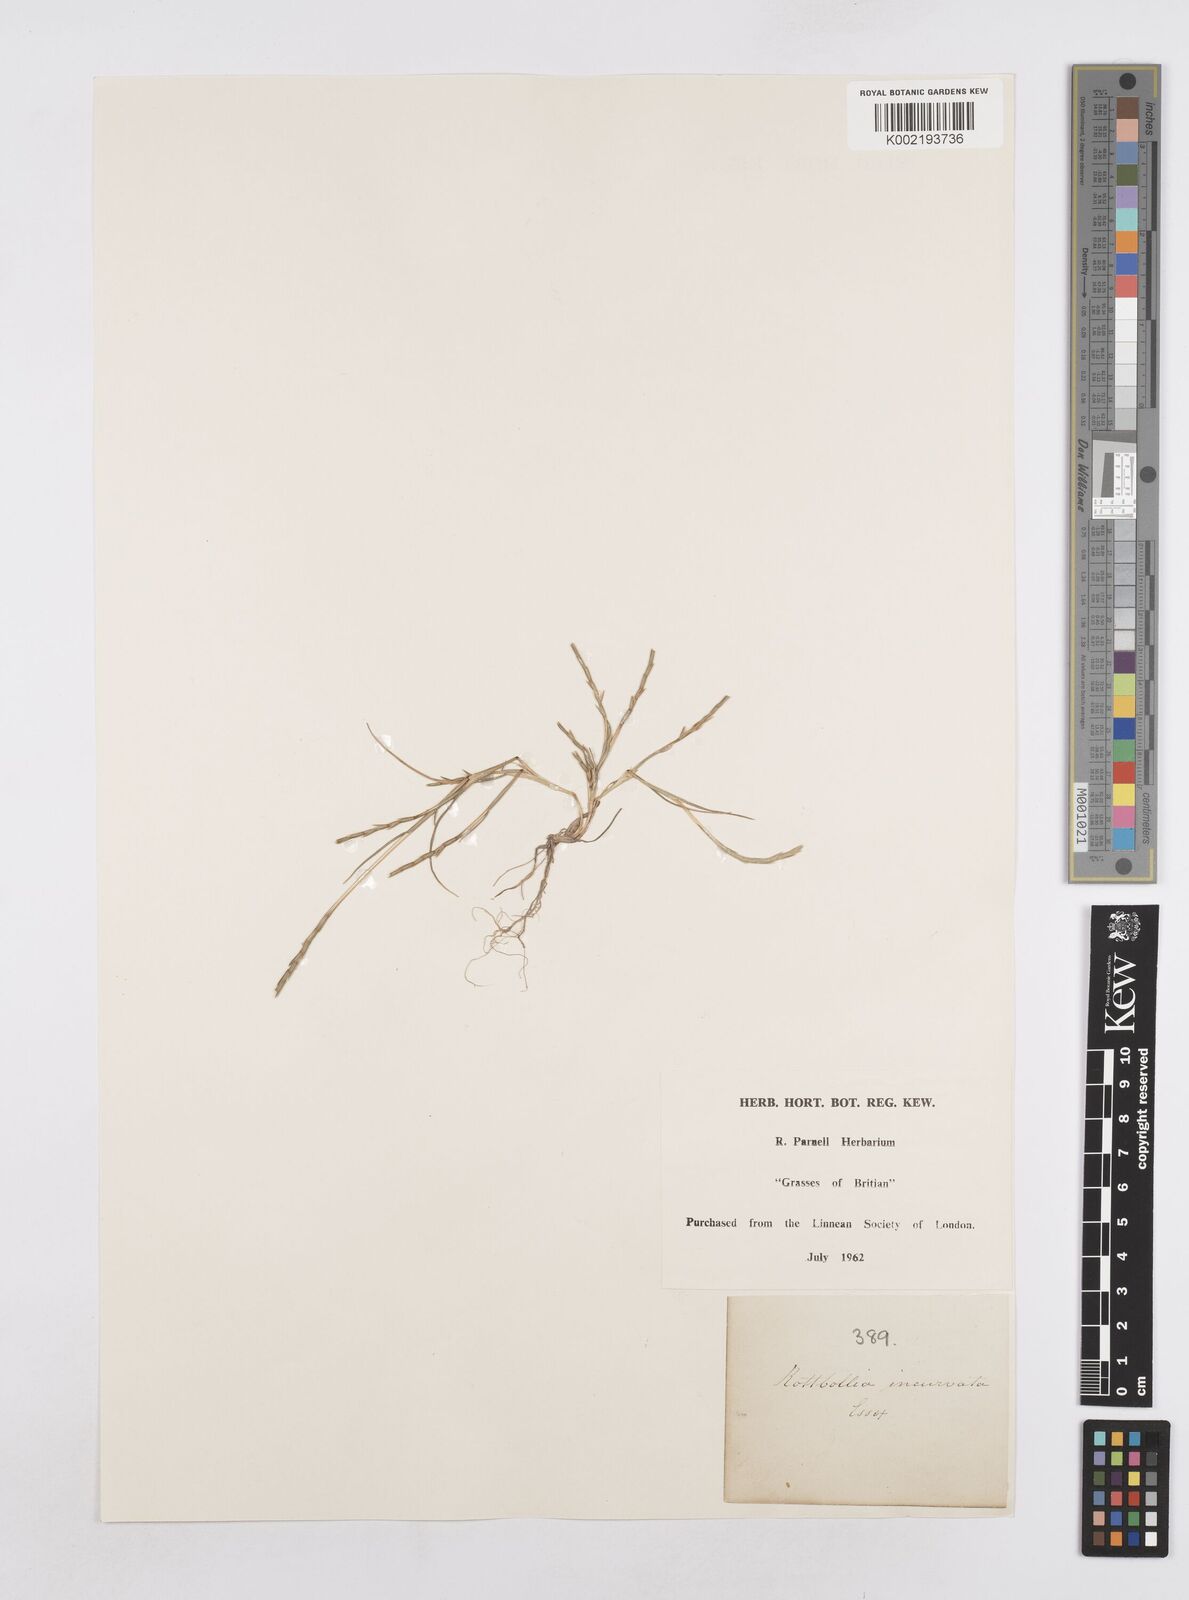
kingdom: Plantae
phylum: Tracheophyta
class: Liliopsida
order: Poales
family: Poaceae
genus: Parapholis
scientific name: Parapholis strigosa
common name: Hard-grass
